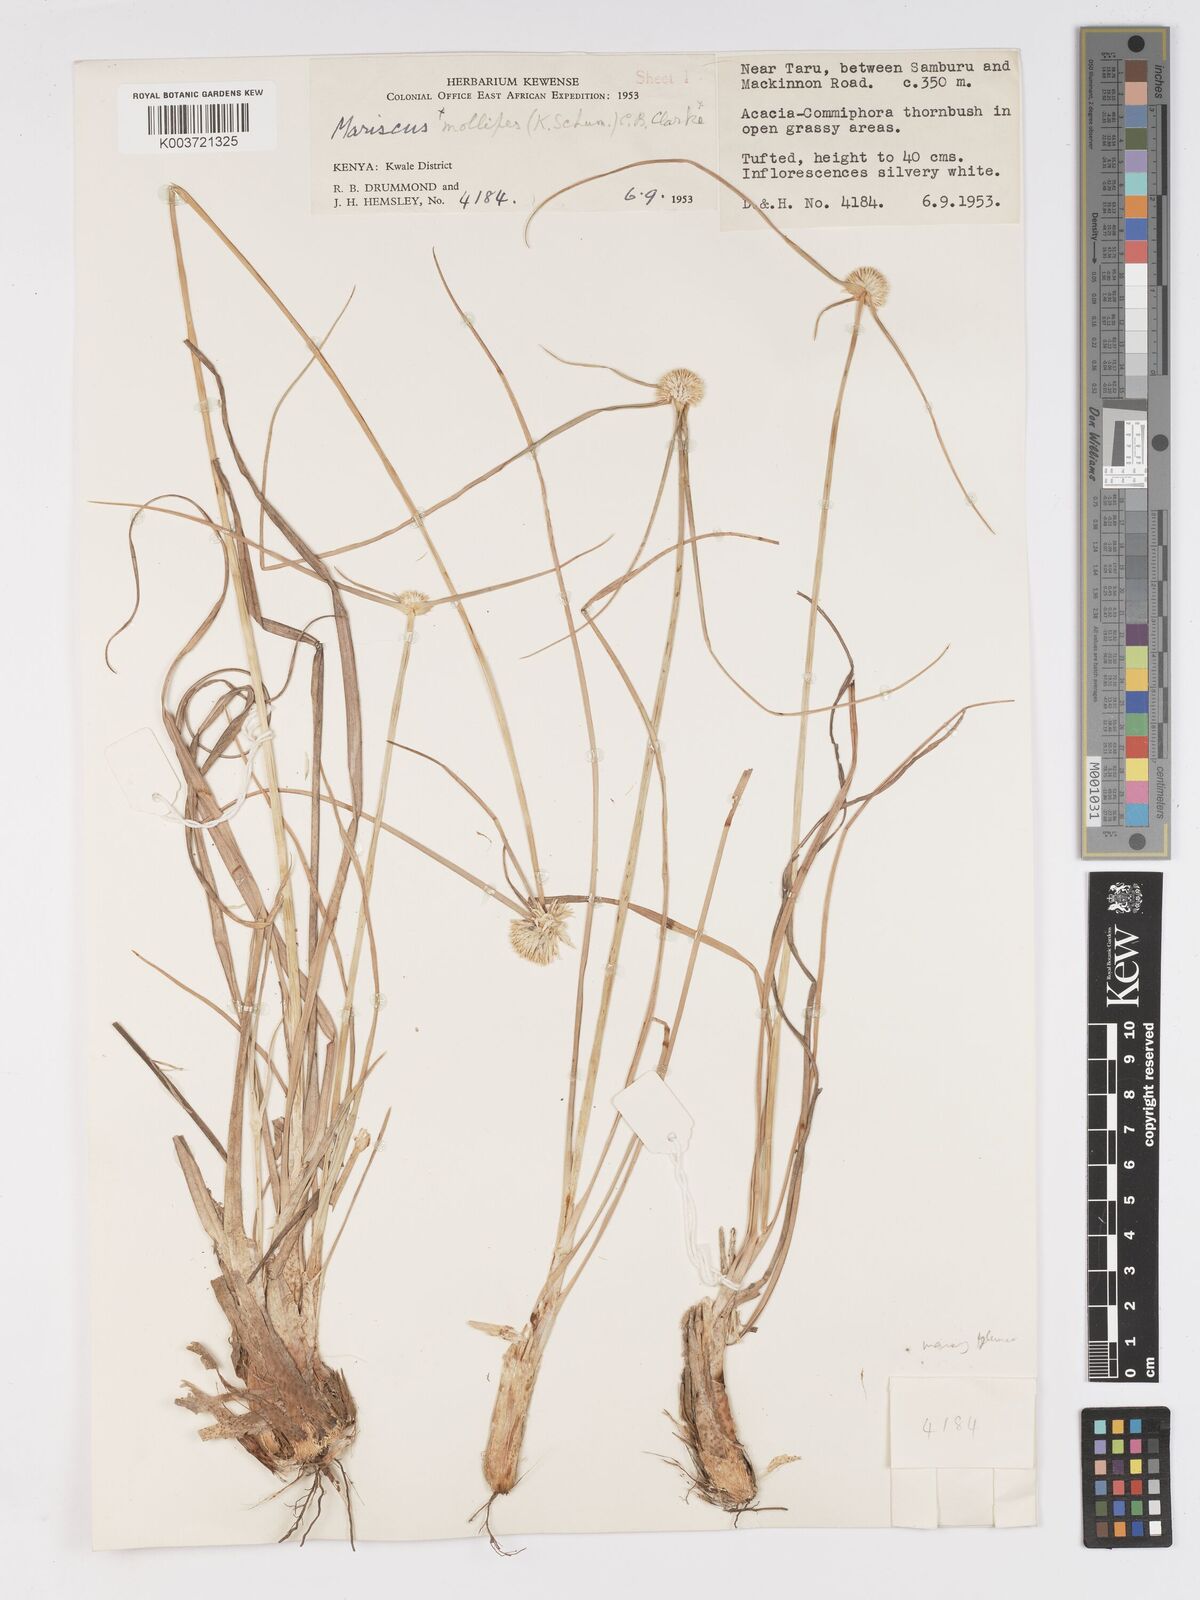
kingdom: Plantae
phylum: Tracheophyta
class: Liliopsida
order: Poales
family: Cyperaceae
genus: Cyperus
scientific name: Cyperus mollipes
